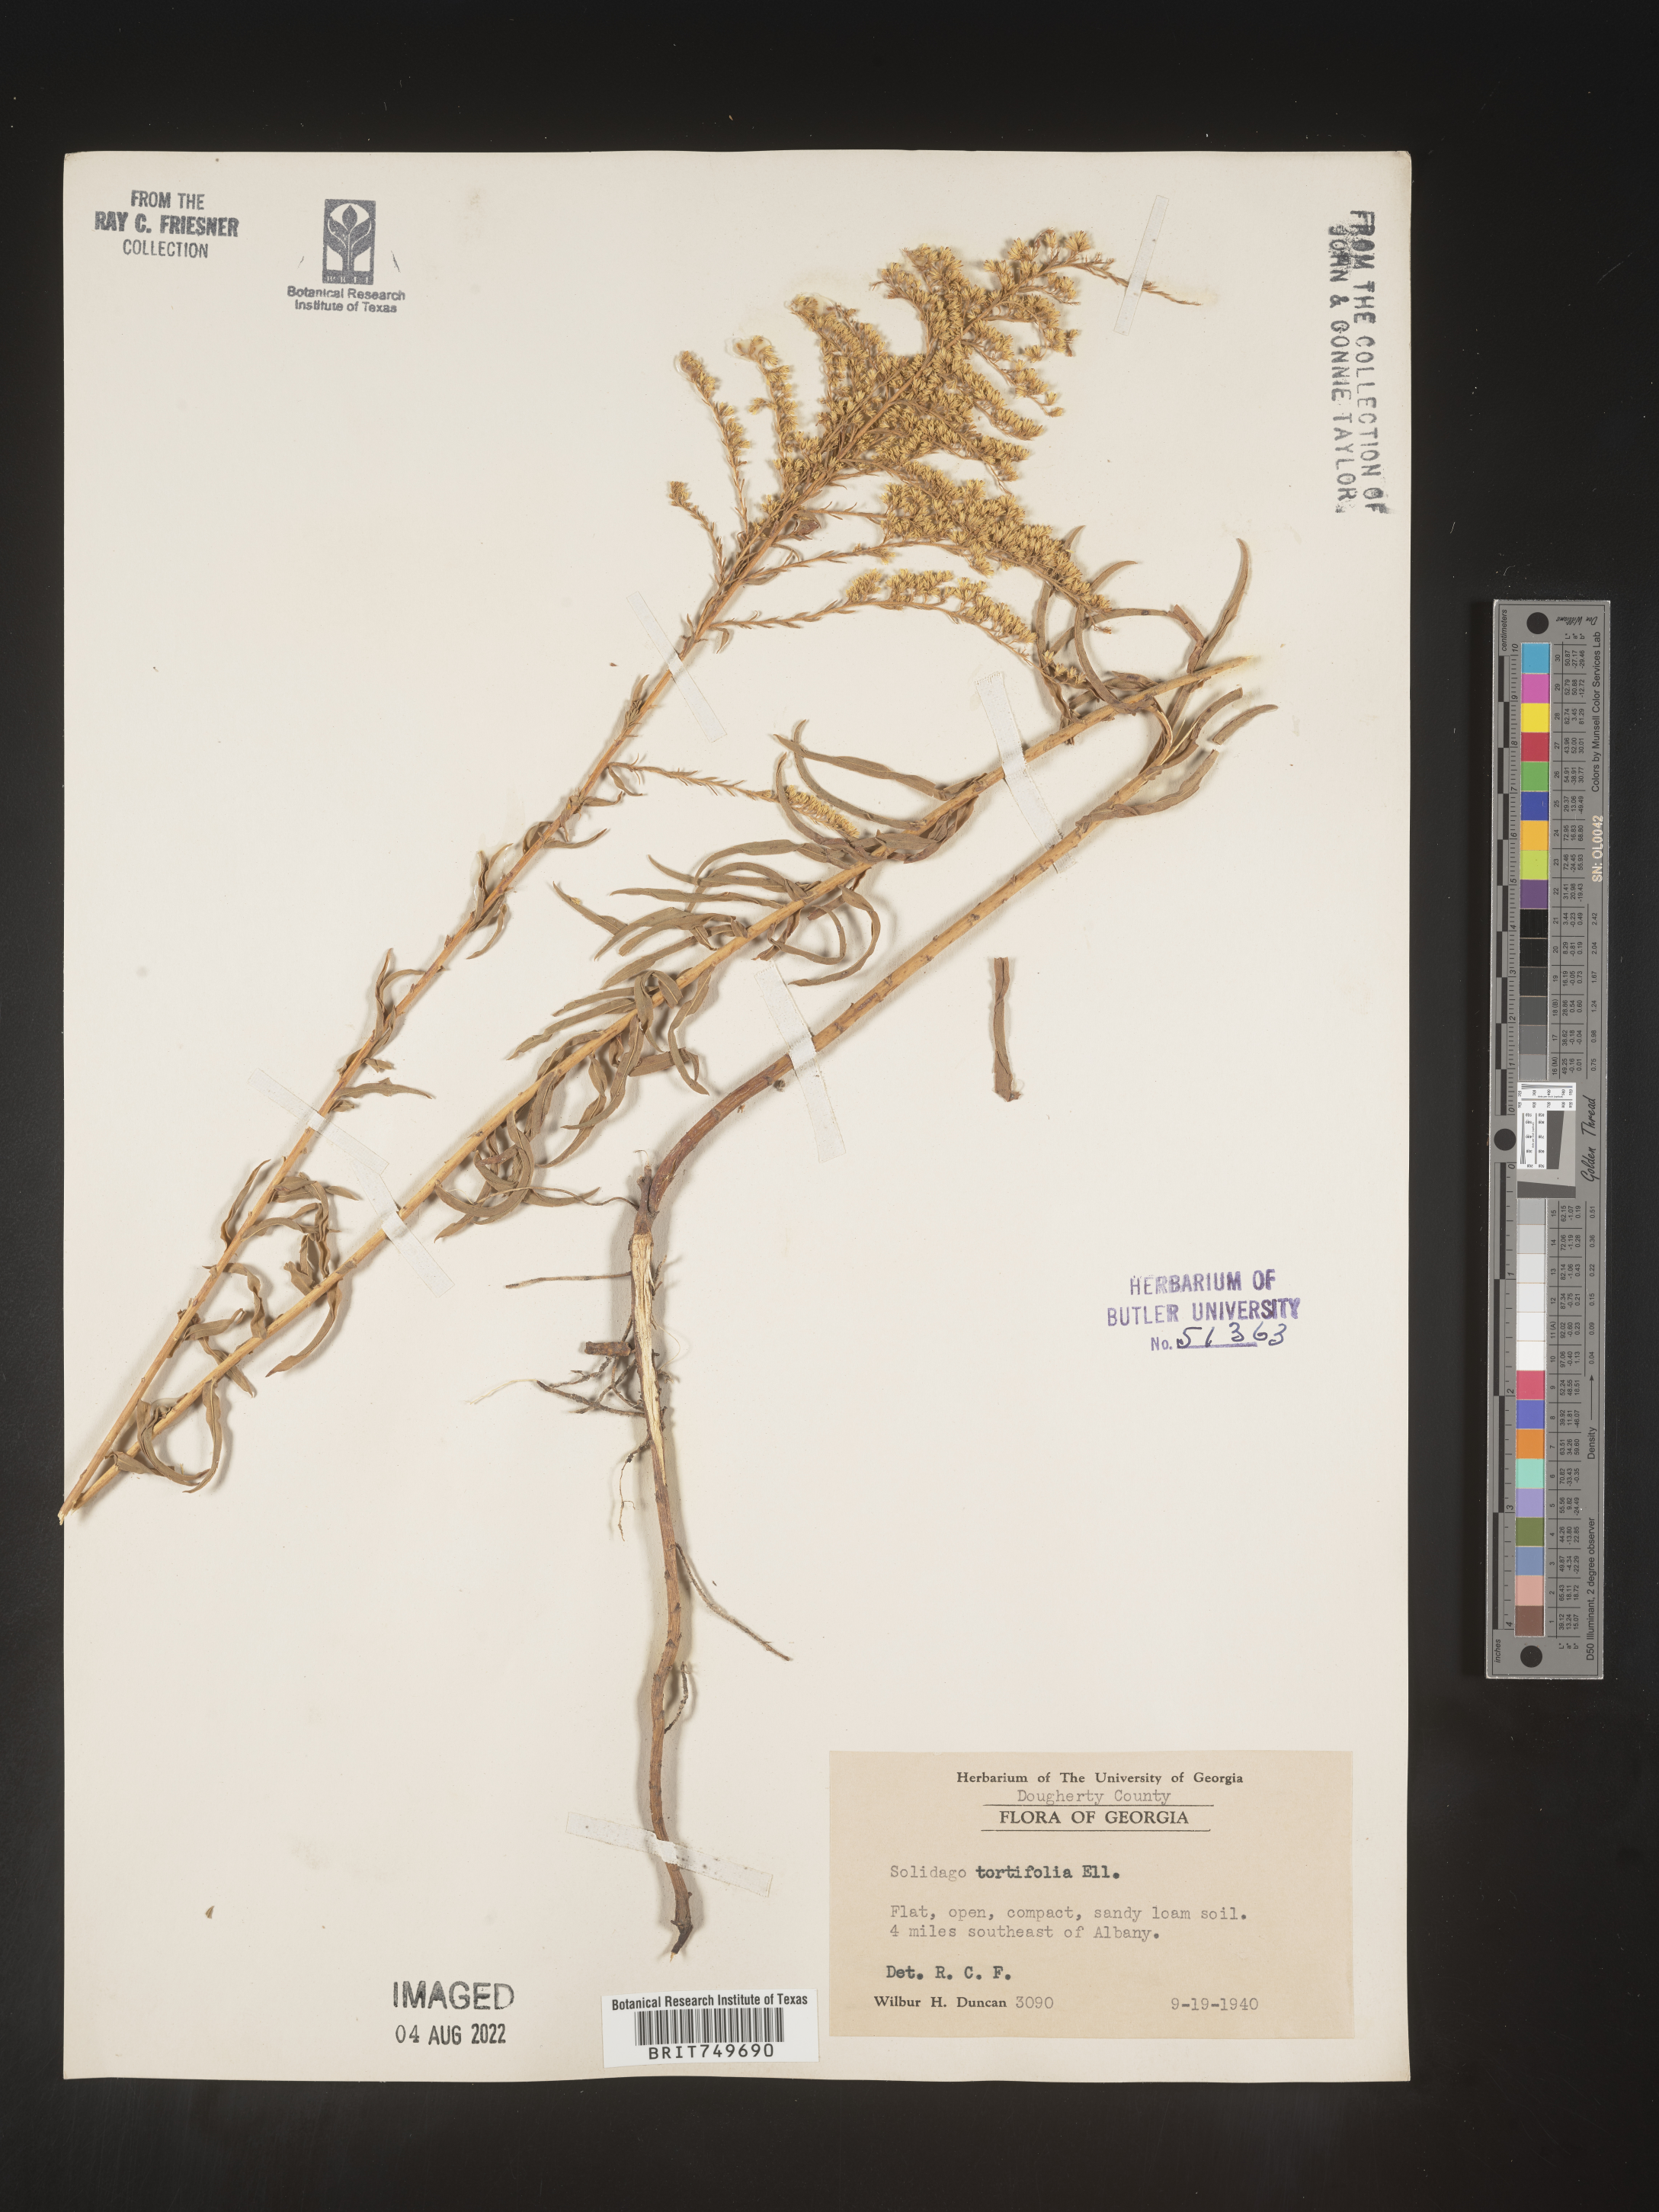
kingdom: Plantae
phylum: Tracheophyta
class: Magnoliopsida
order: Asterales
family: Asteraceae
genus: Solidago
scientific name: Solidago tortifolia
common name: Twisted-leaf goldenrod
